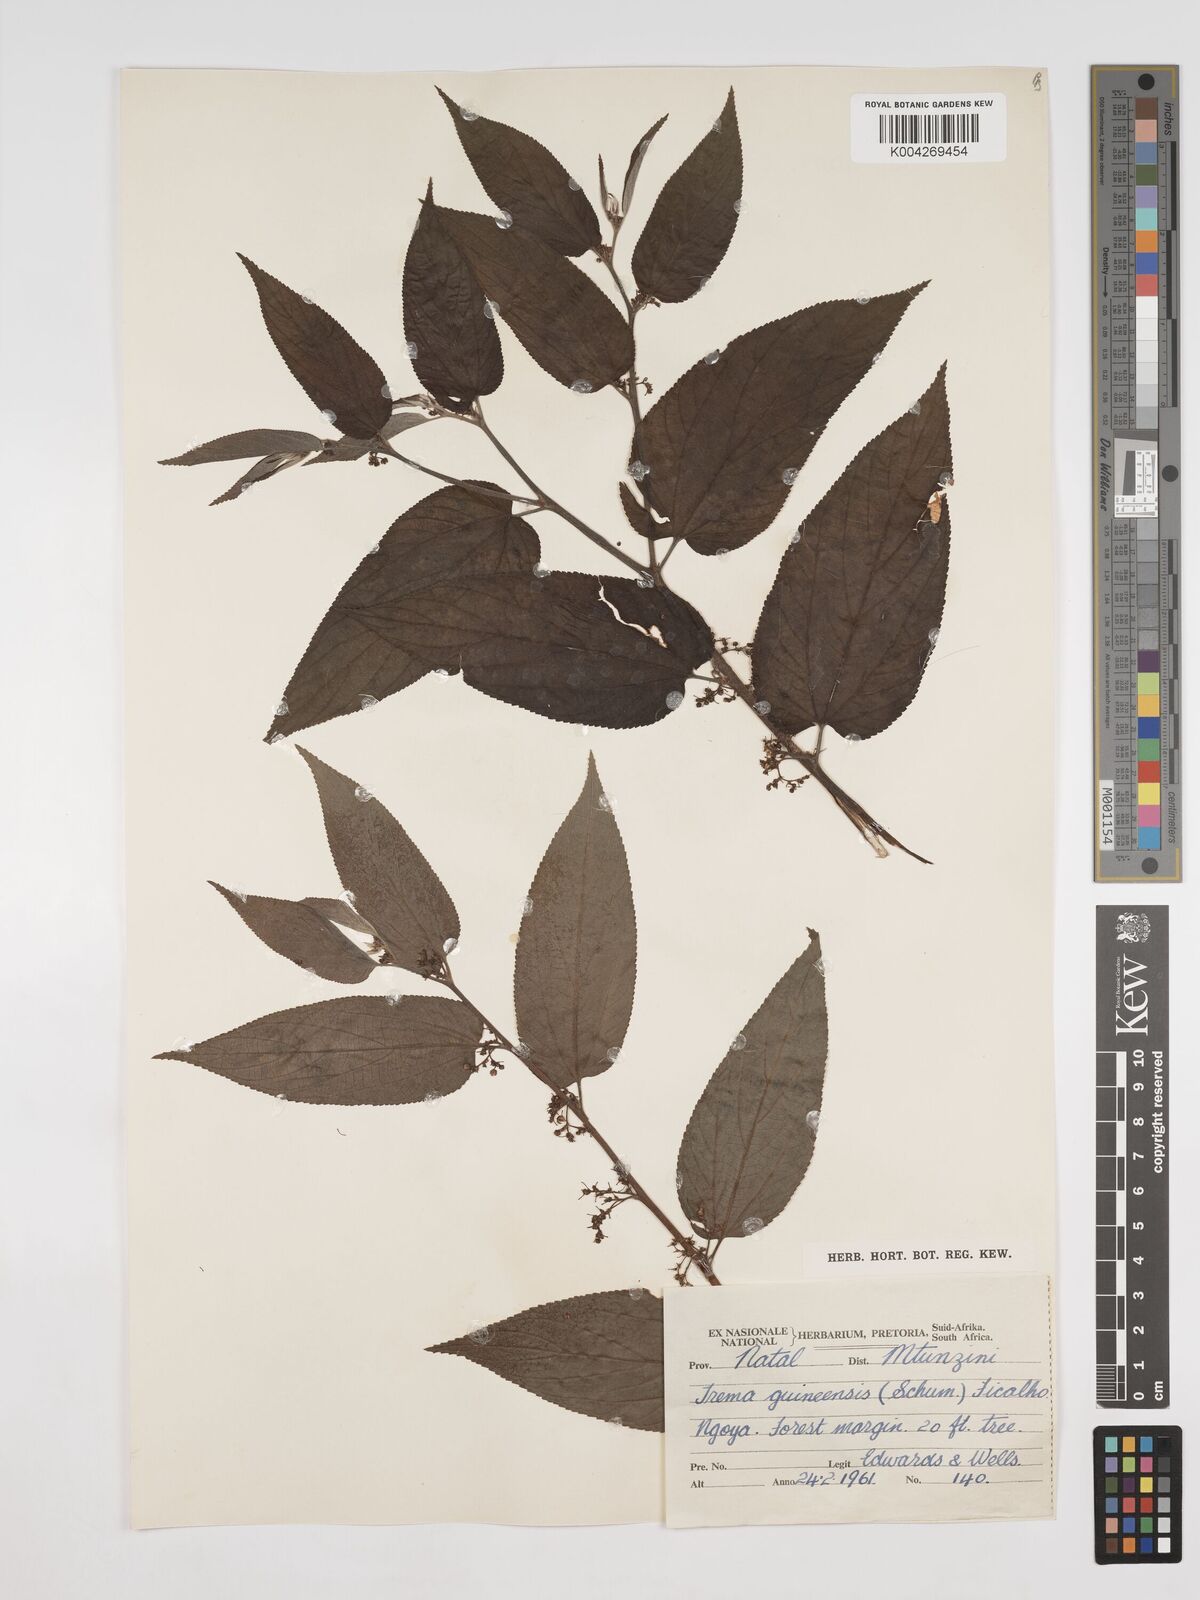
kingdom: Plantae
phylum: Tracheophyta
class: Magnoliopsida
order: Rosales
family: Cannabaceae
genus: Trema
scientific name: Trema orientale
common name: Indian charcoal tree
